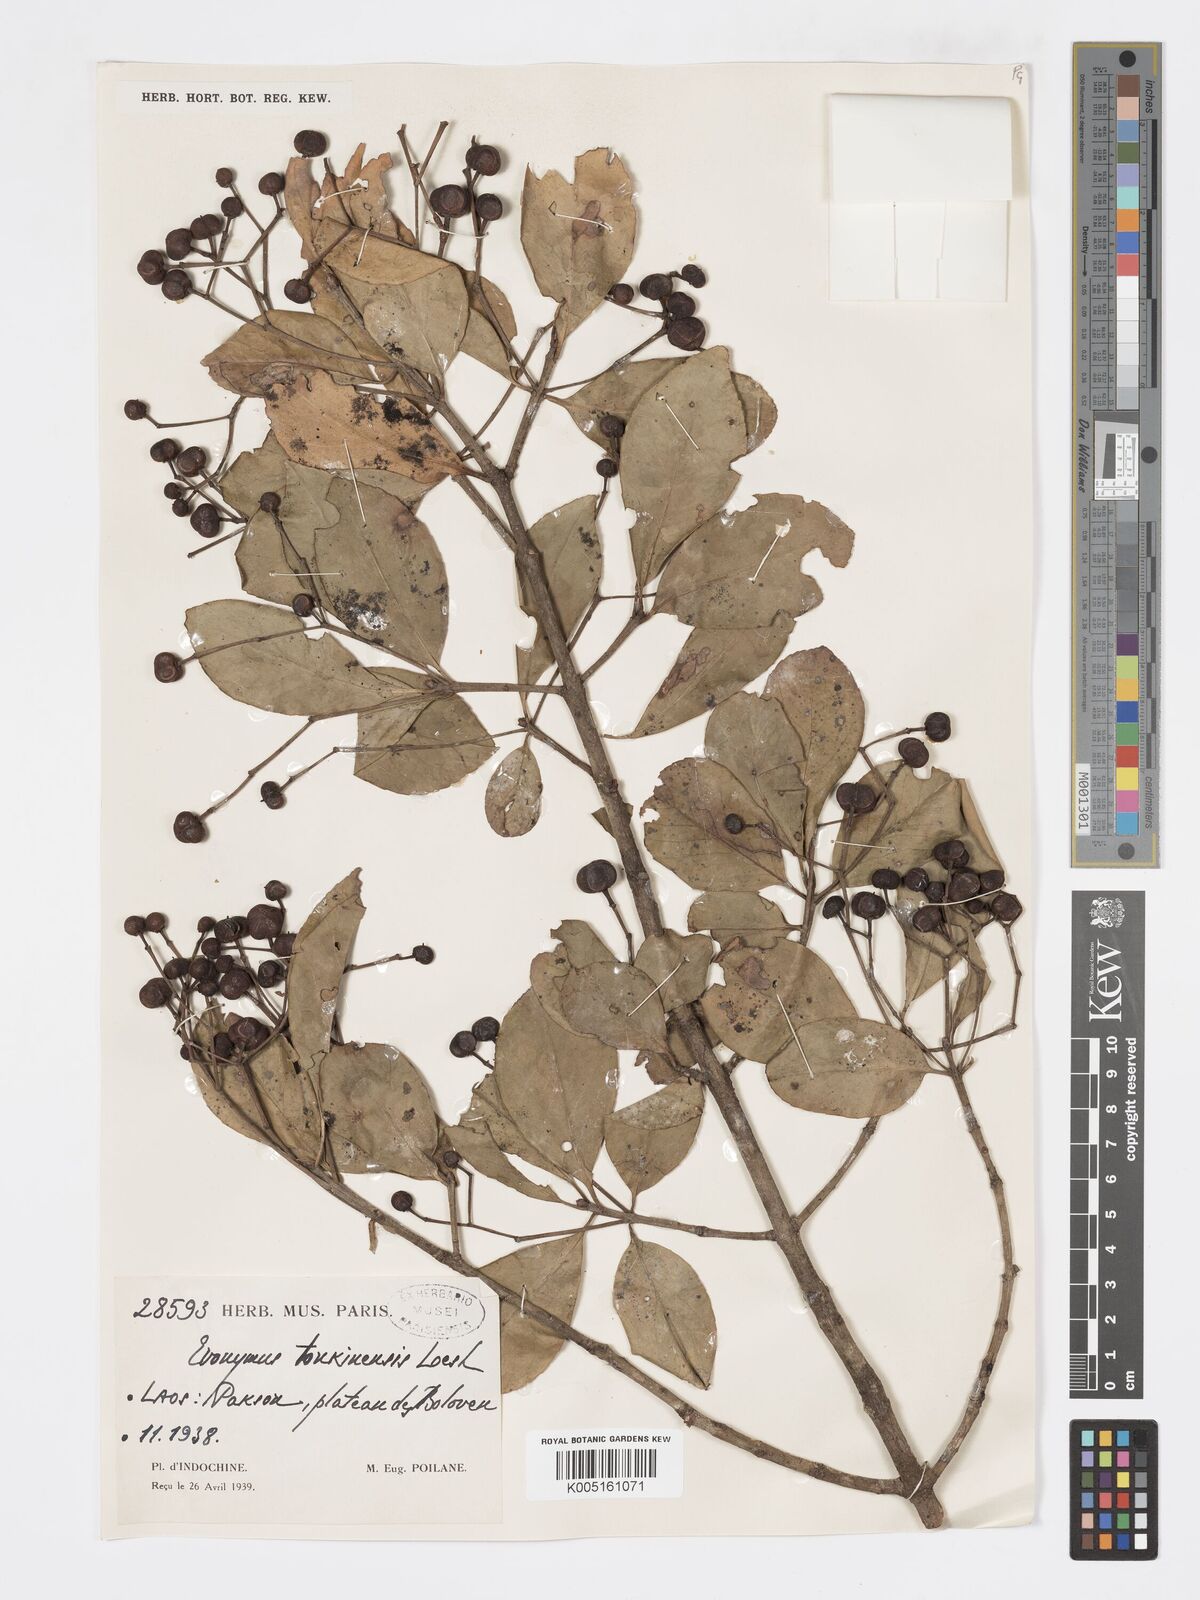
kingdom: Plantae
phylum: Tracheophyta
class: Magnoliopsida
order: Celastrales
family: Celastraceae
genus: Euonymus
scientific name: Euonymus tonkinensis
